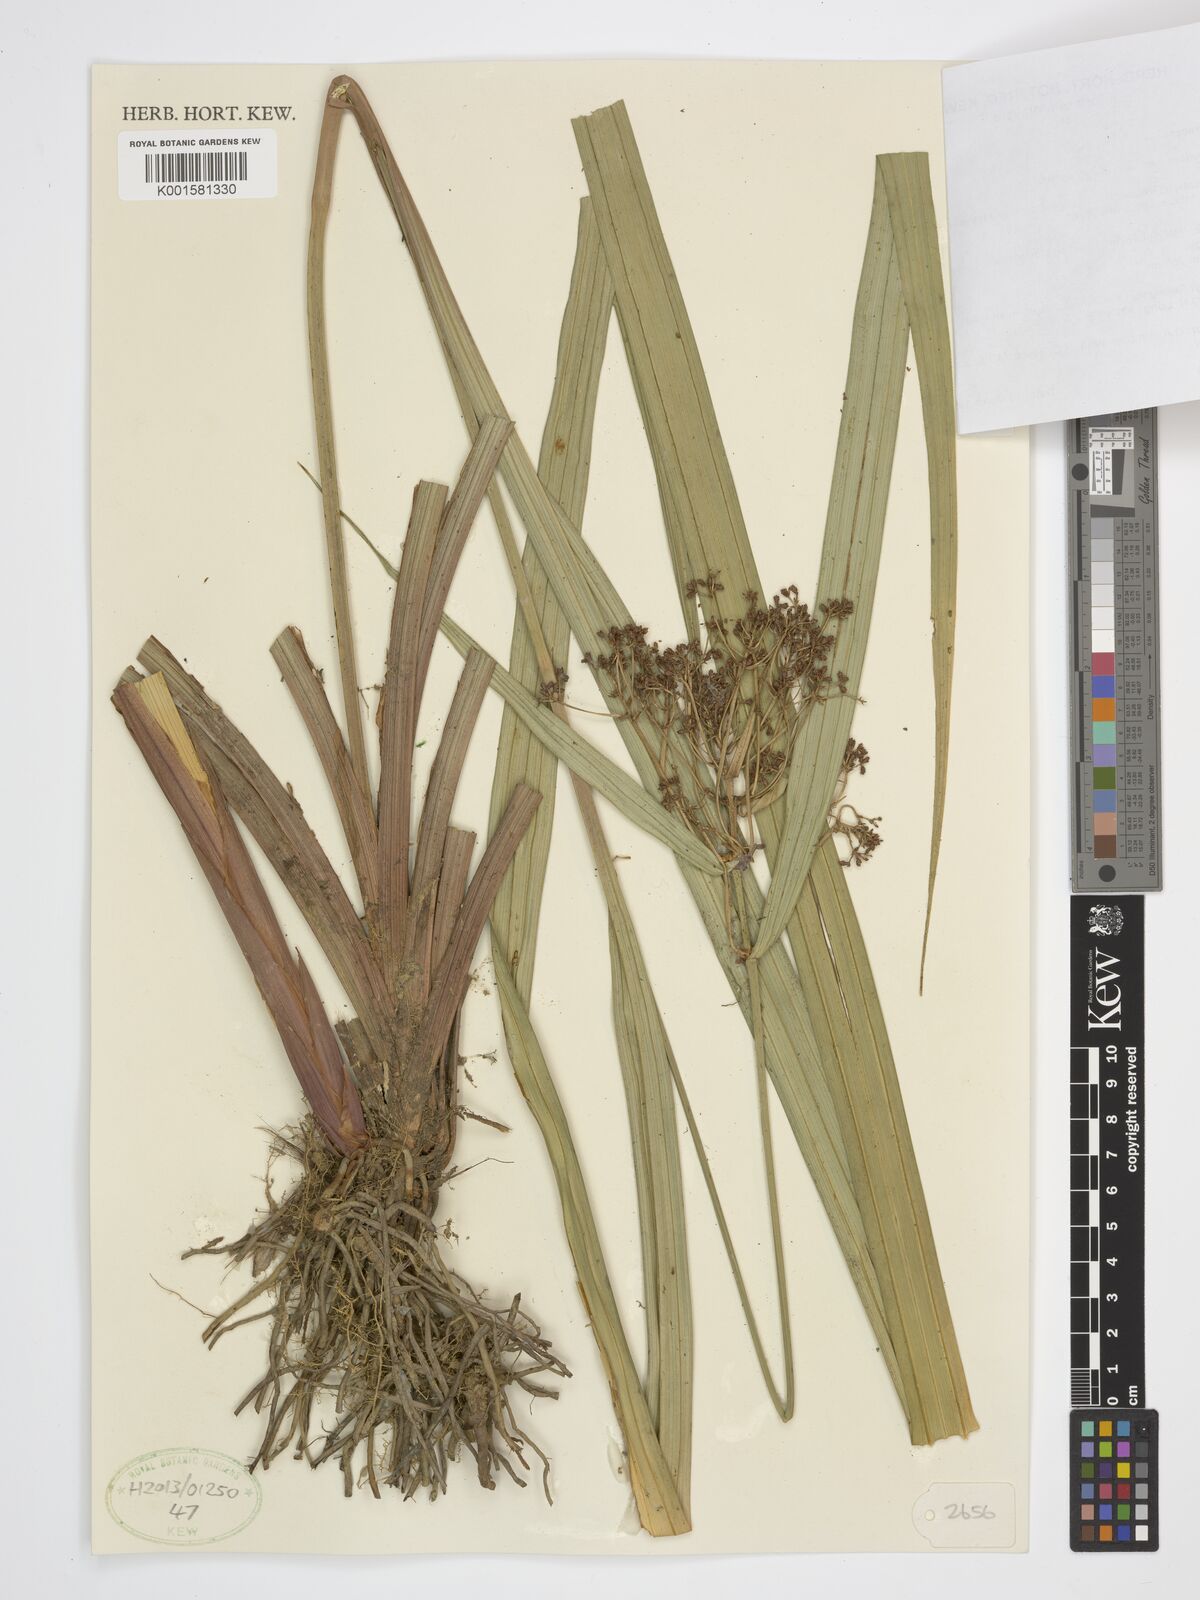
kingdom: Plantae
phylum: Tracheophyta
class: Liliopsida
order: Poales
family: Cyperaceae
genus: Hypolytrum
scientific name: Hypolytrum nemorum
